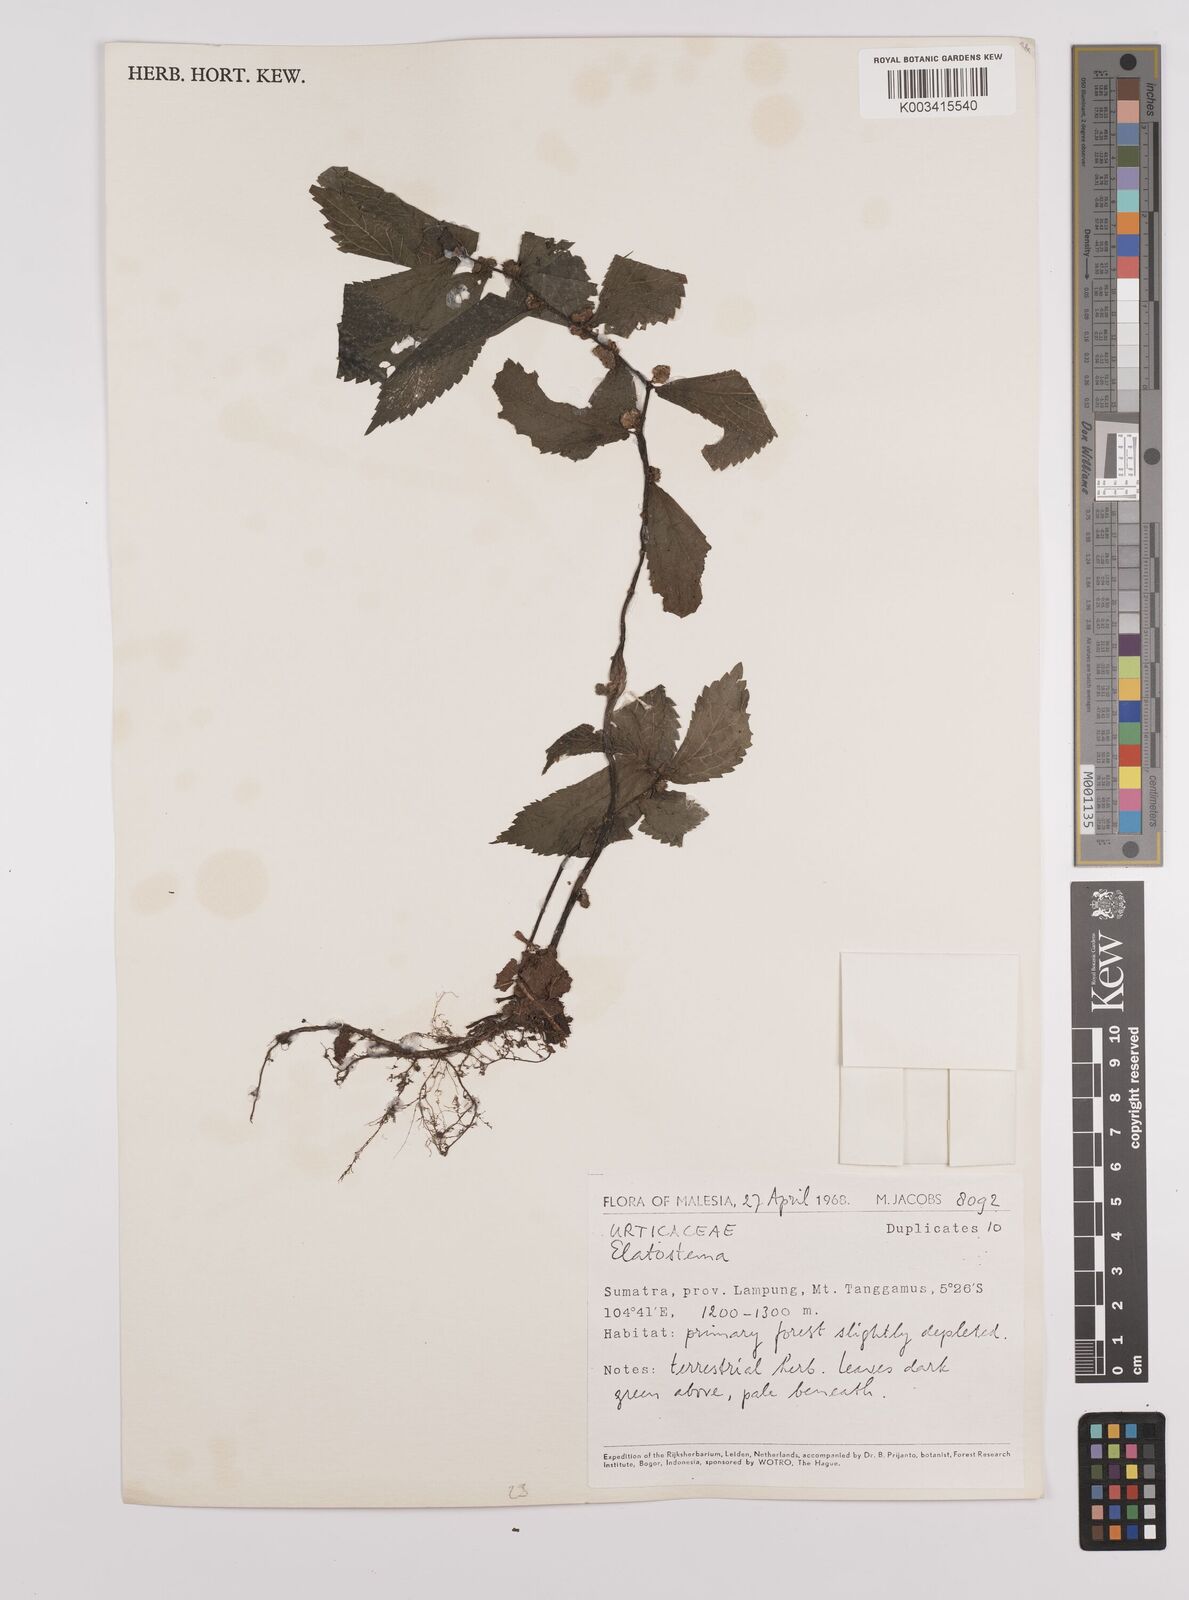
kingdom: Plantae
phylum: Tracheophyta
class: Magnoliopsida
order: Rosales
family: Urticaceae
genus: Elatostema
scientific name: Elatostema
